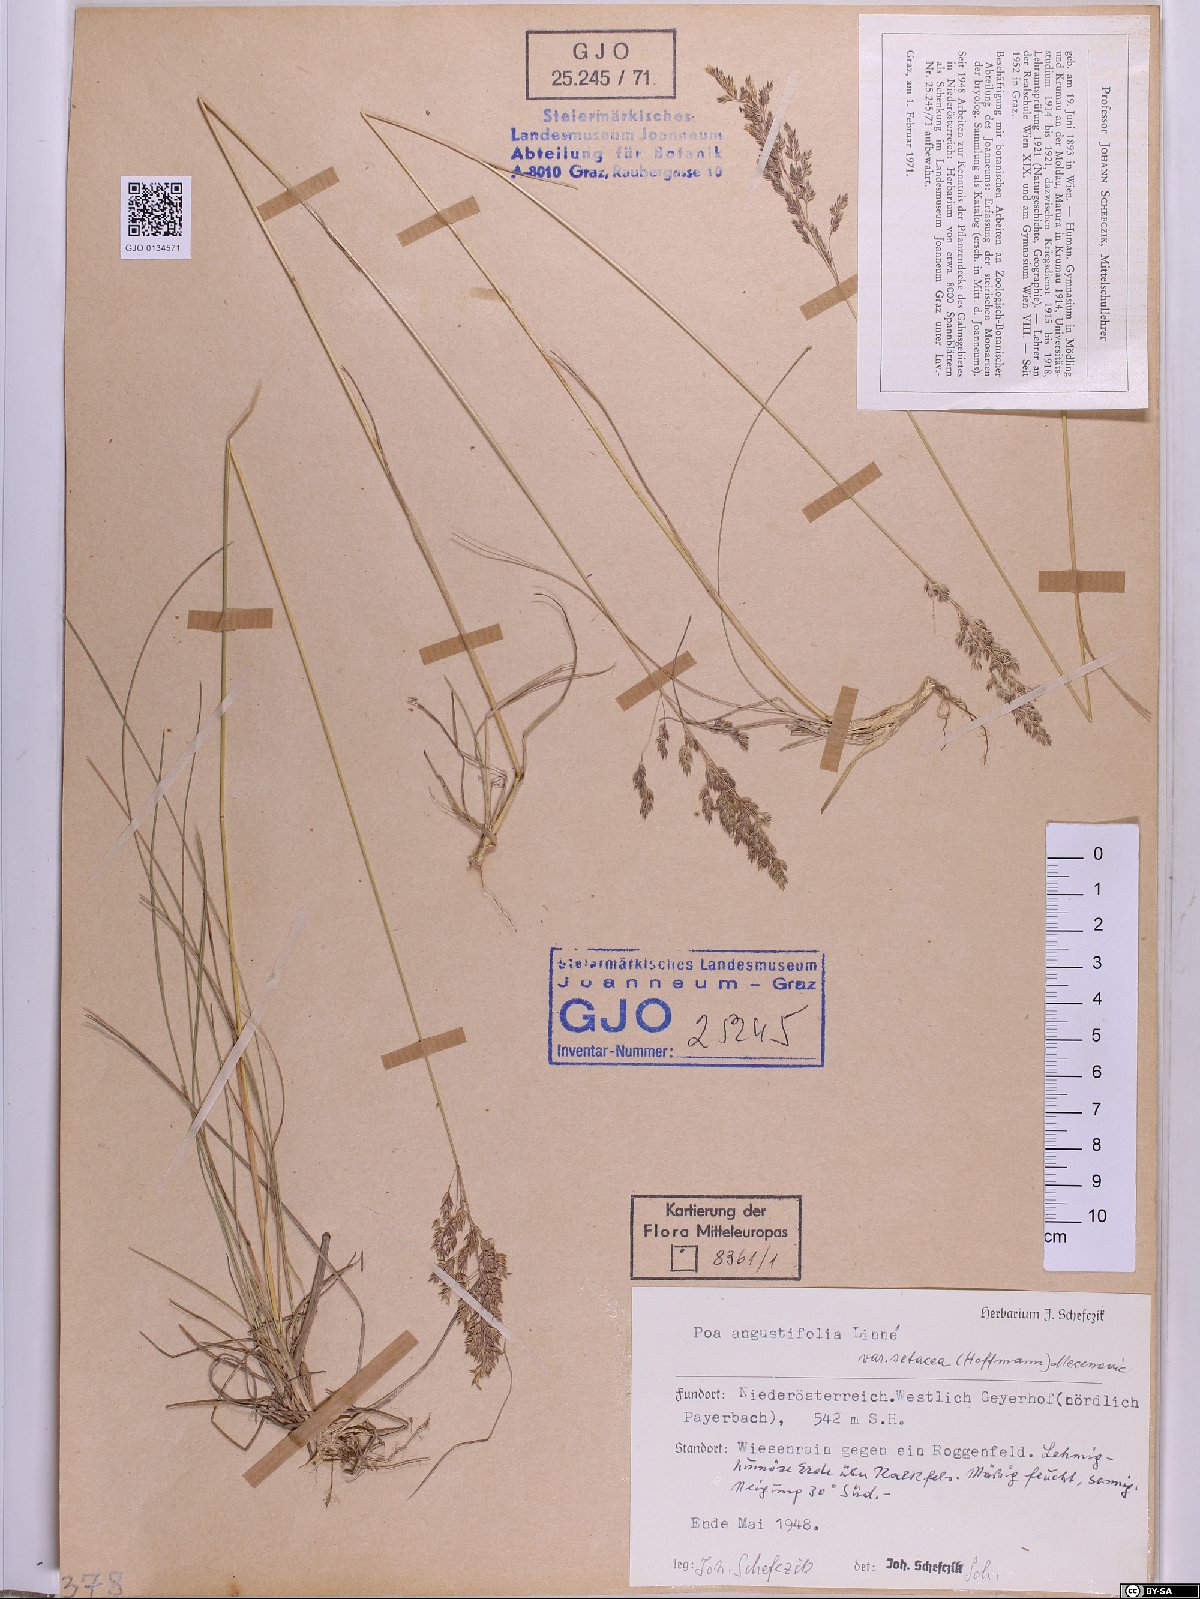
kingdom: Plantae
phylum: Tracheophyta
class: Liliopsida
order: Poales
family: Poaceae
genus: Poa
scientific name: Poa angustifolia
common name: Narrow-leaved meadow-grass
